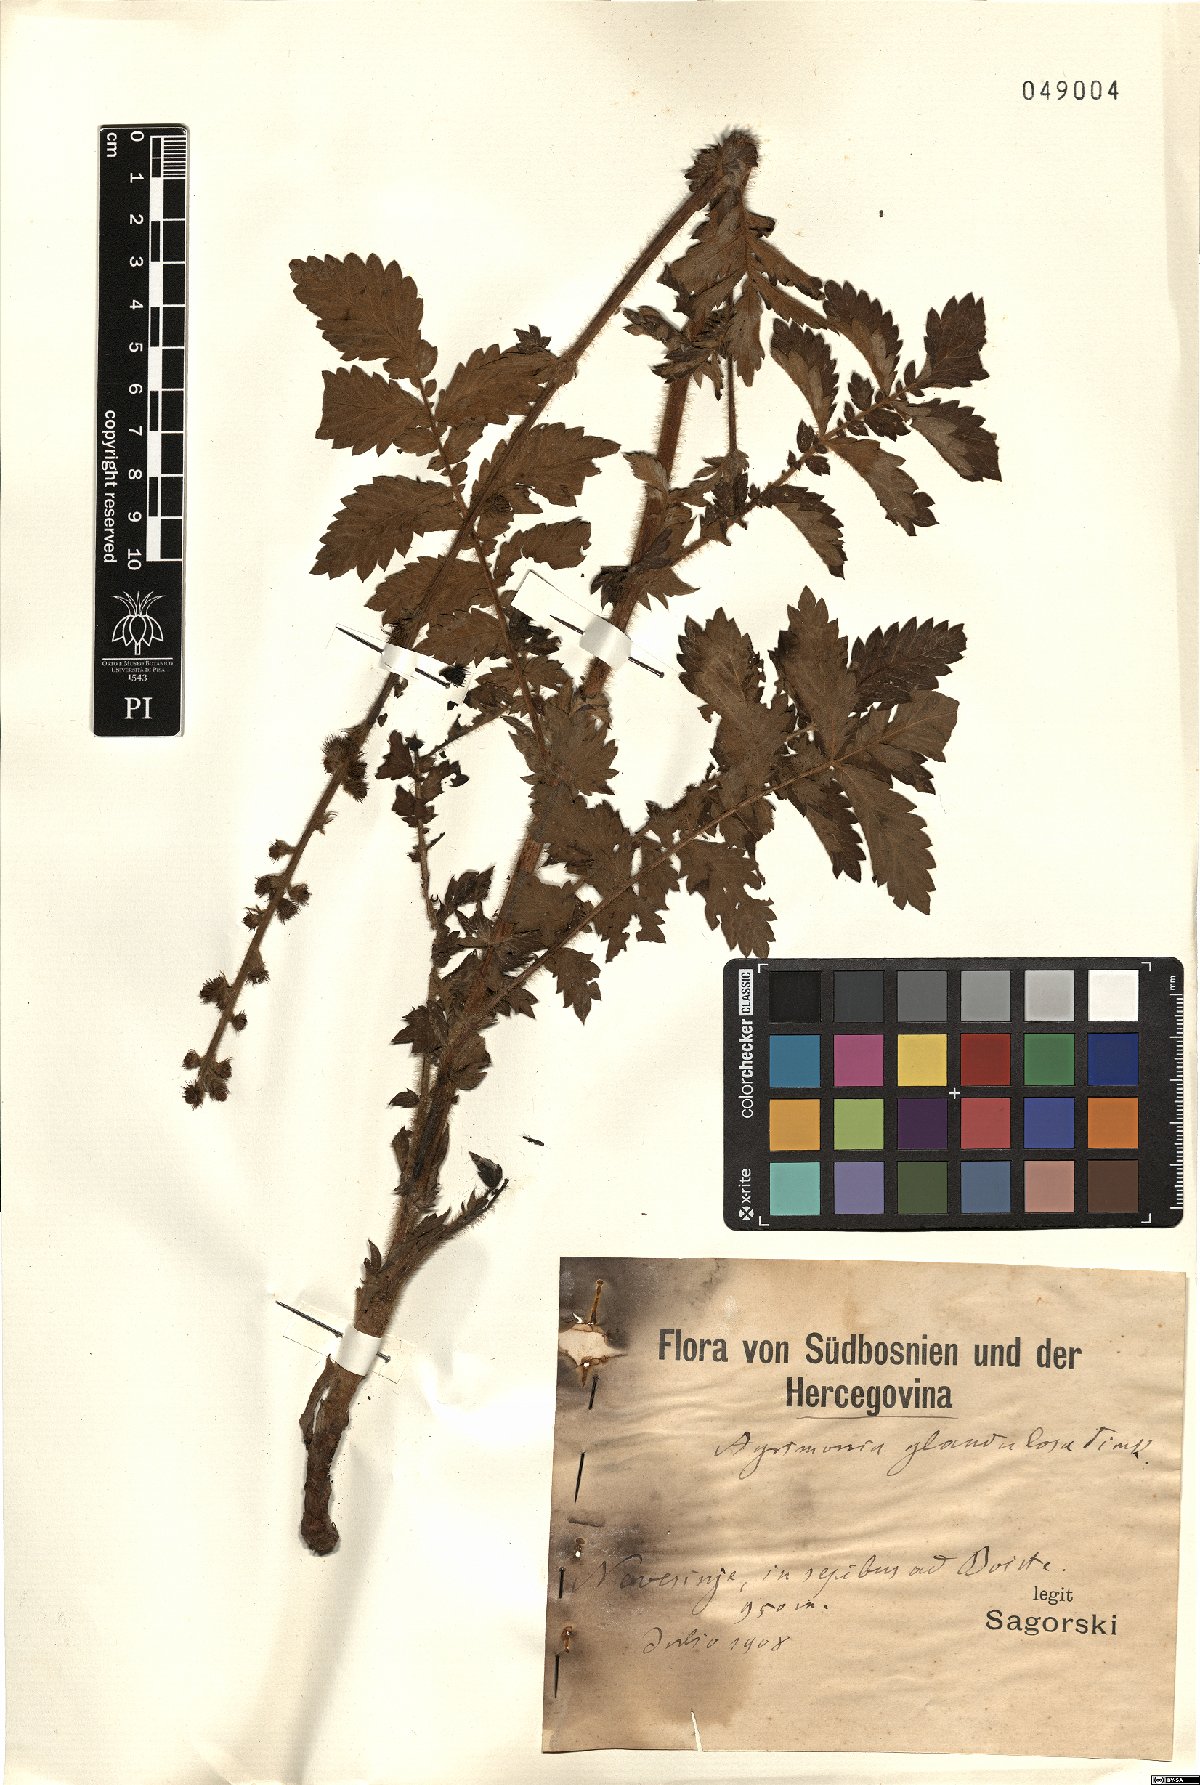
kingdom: Plantae
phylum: Tracheophyta
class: Magnoliopsida
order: Rosales
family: Rosaceae
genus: Agrimonia
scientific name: Agrimonia procera
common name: Fragrant agrimony
